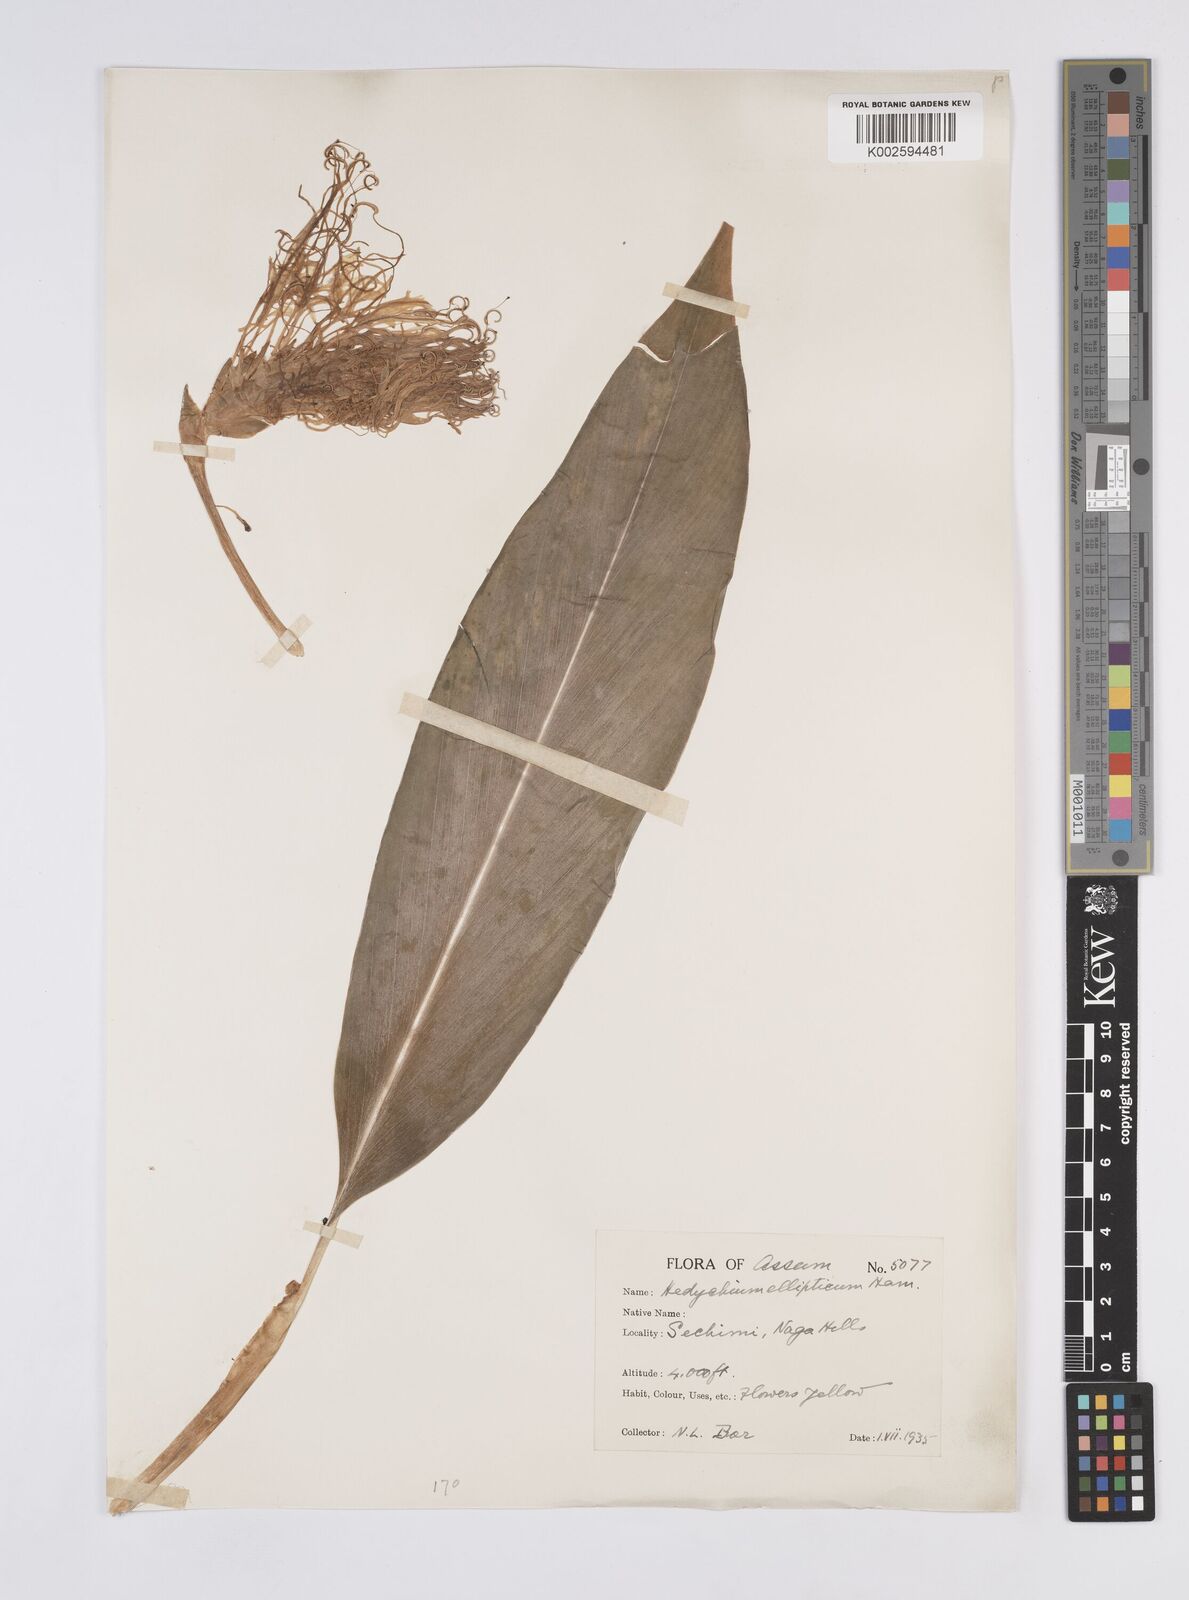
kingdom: Plantae
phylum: Tracheophyta
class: Liliopsida
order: Zingiberales
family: Zingiberaceae
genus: Hedychium
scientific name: Hedychium ellipticum
